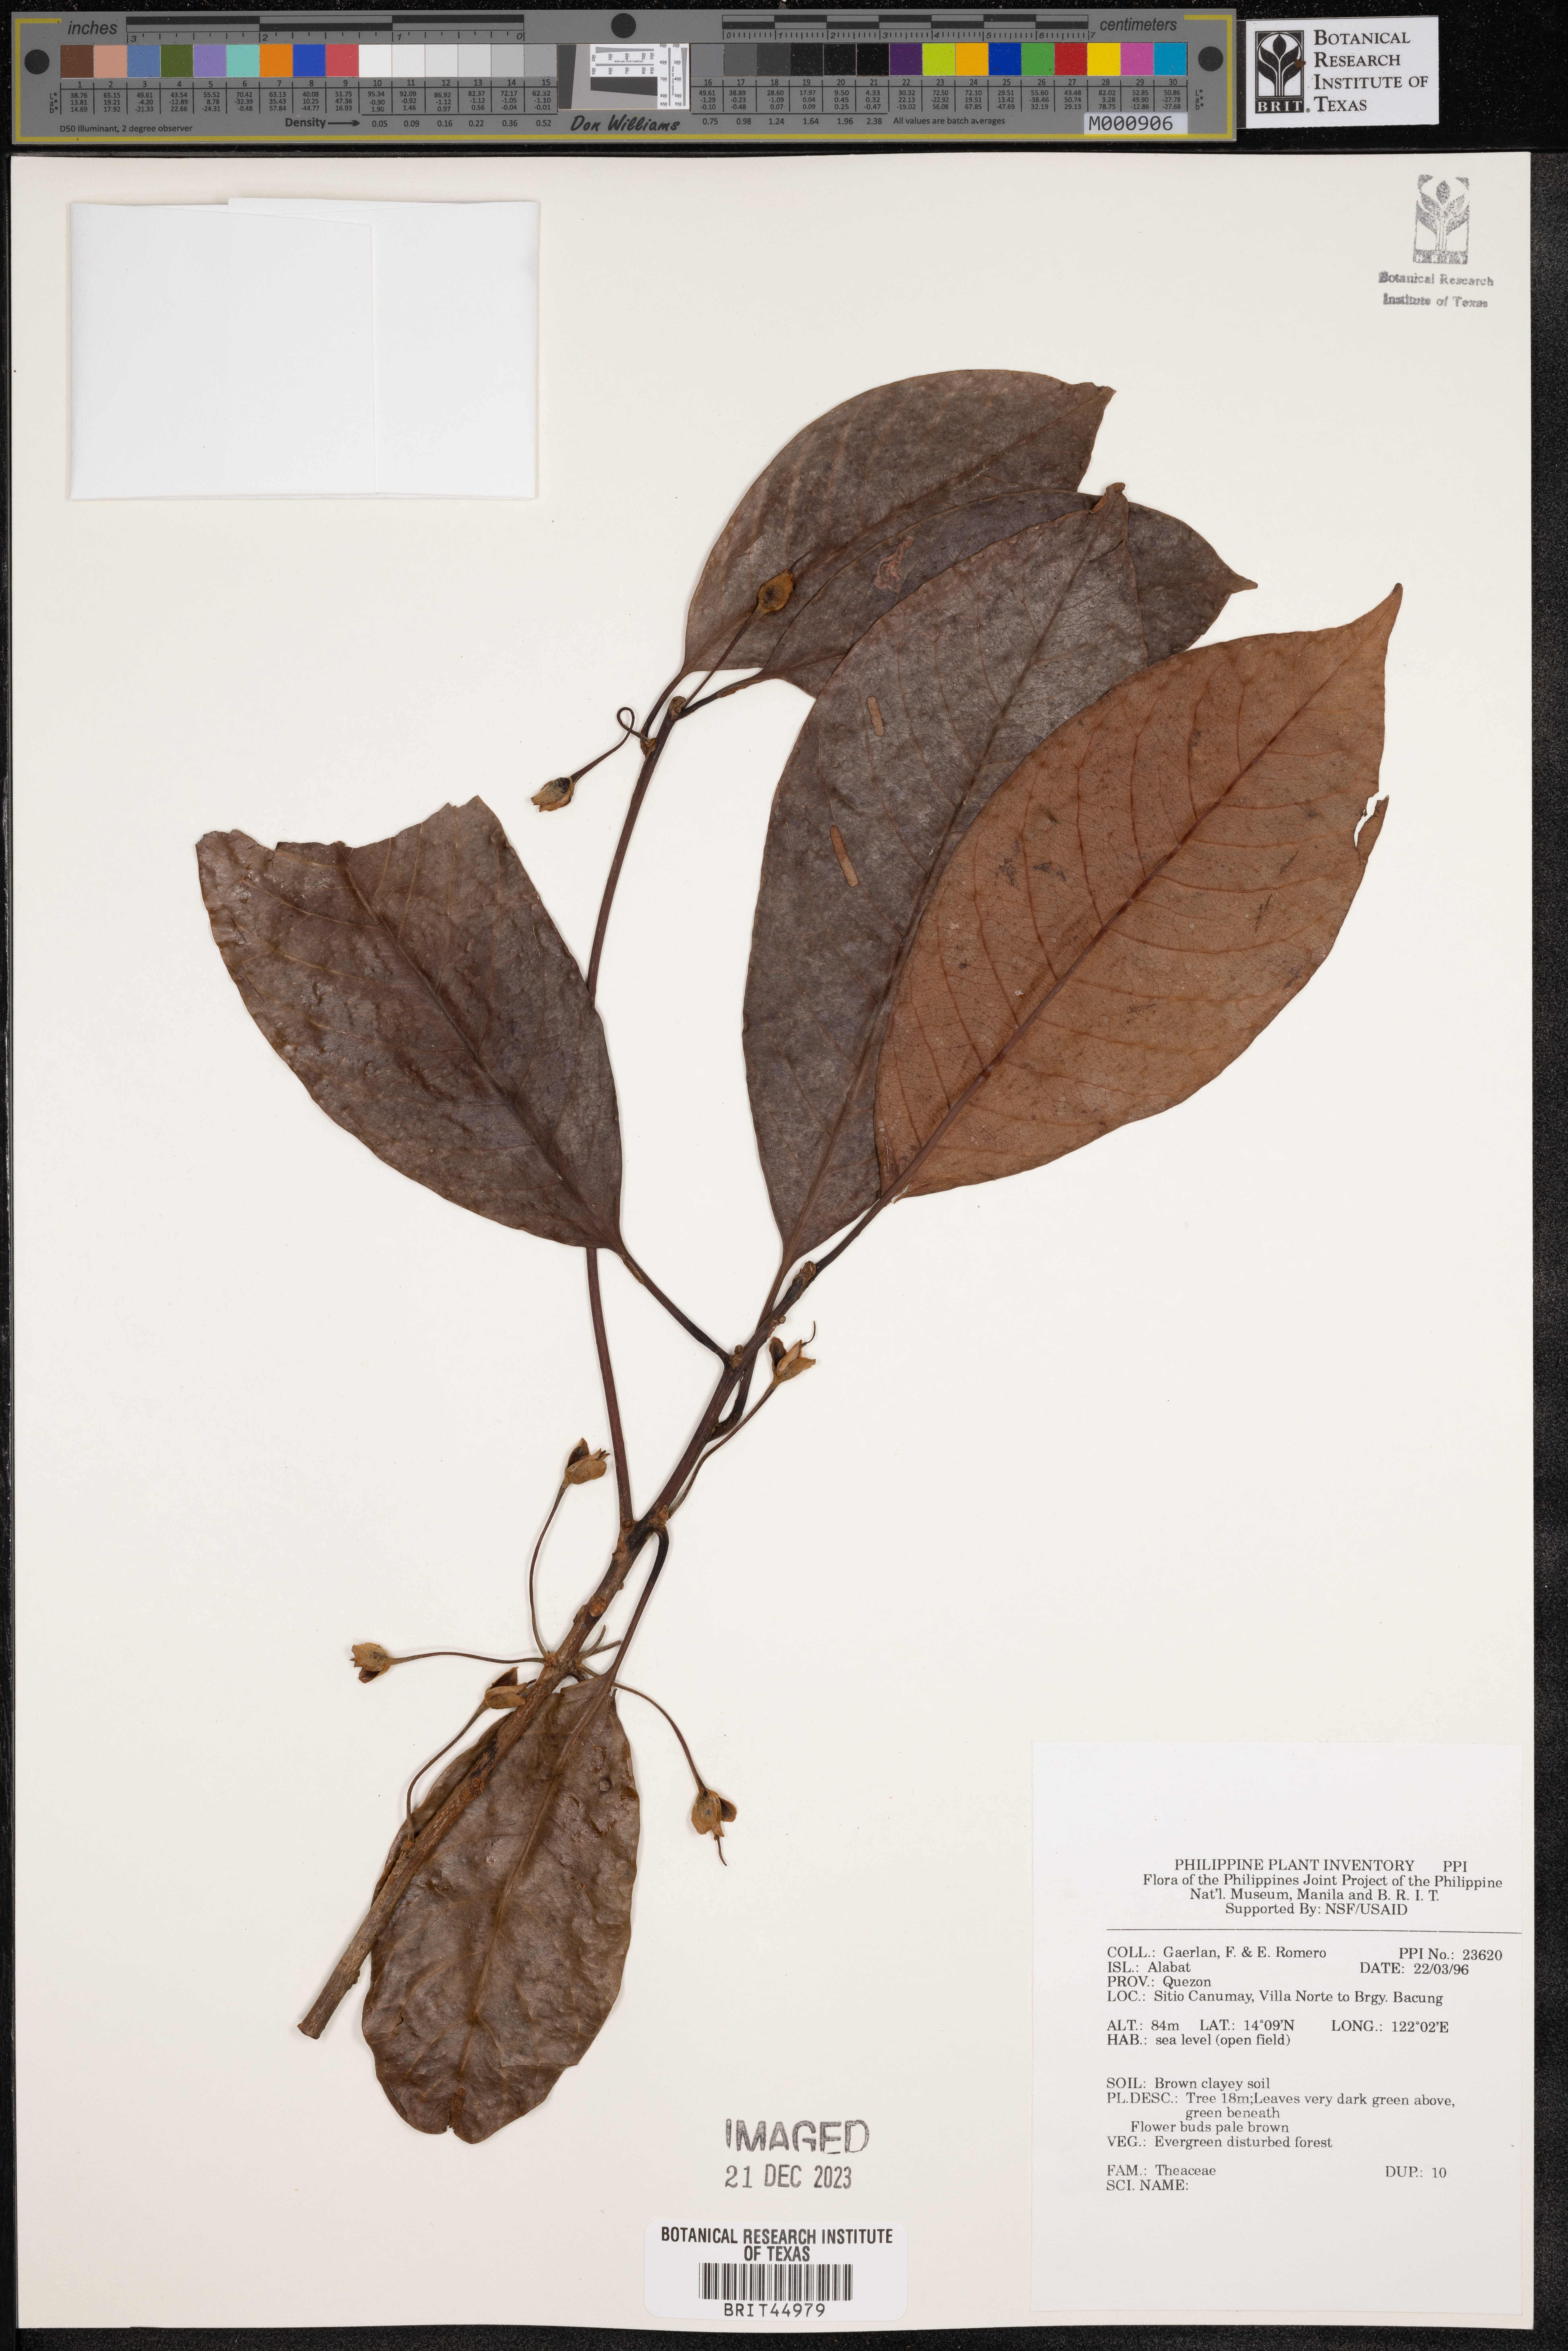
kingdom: Plantae
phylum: Tracheophyta
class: Magnoliopsida
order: Ericales
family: Theaceae
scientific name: Theaceae
